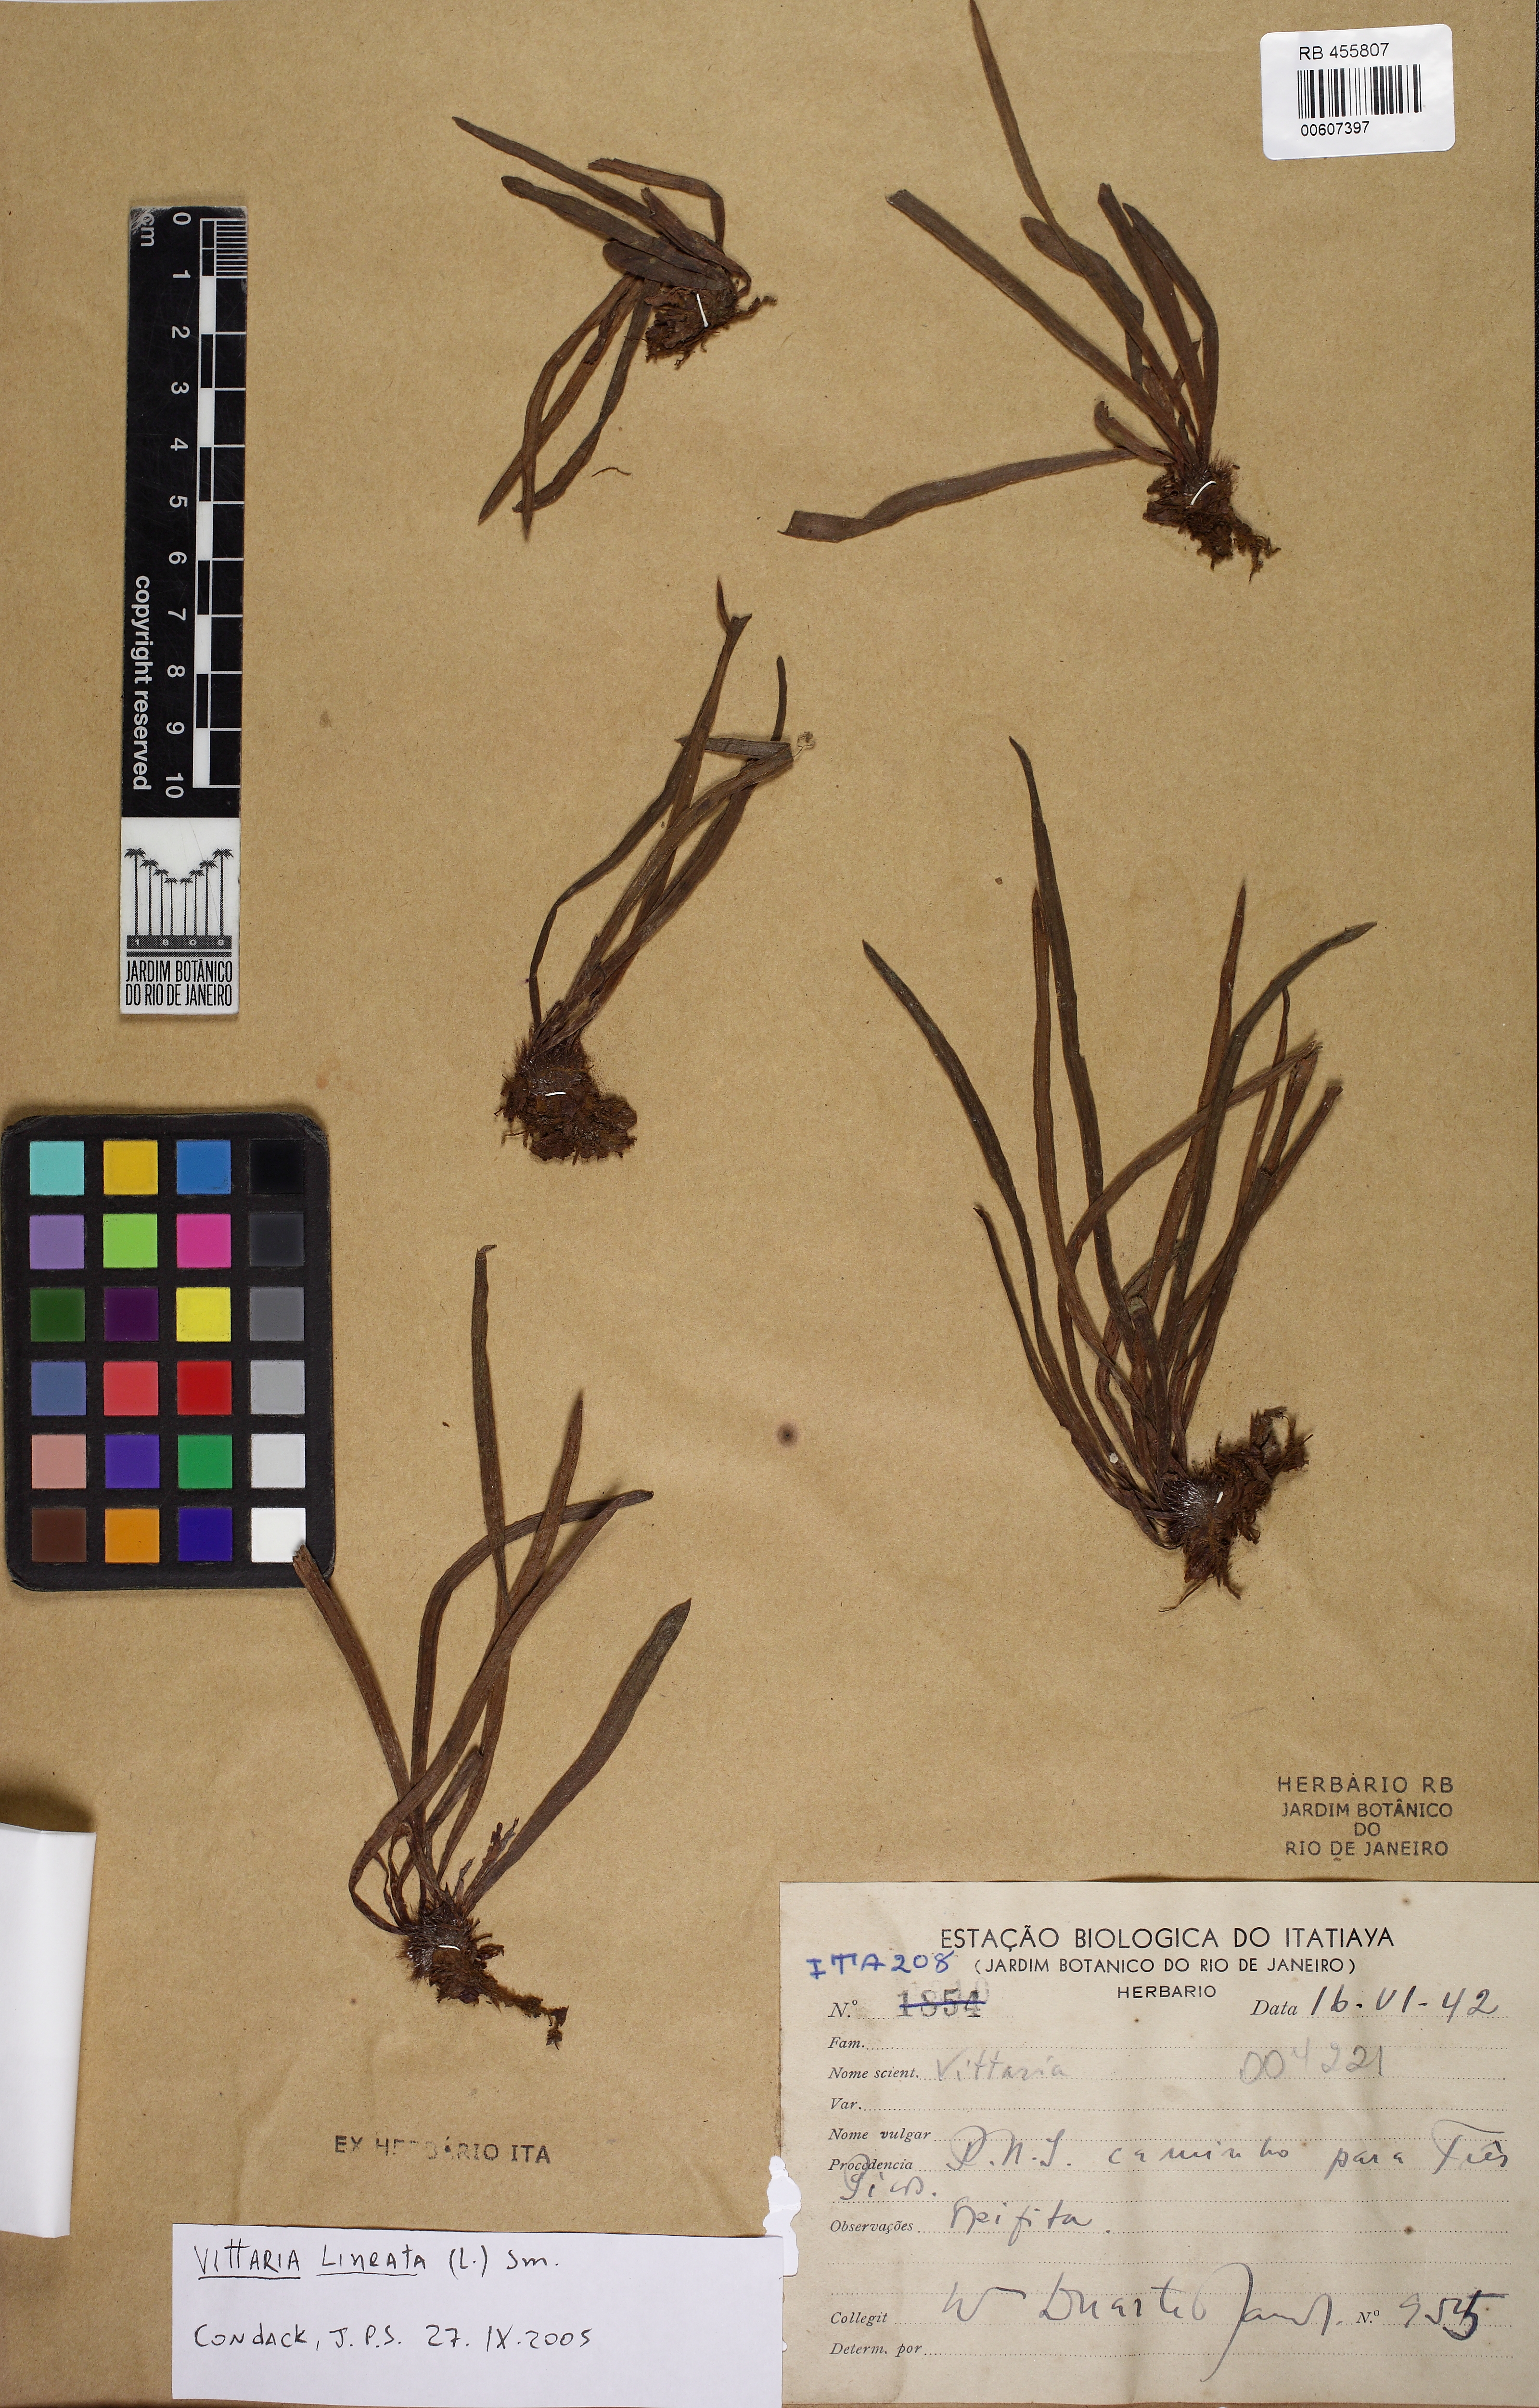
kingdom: Plantae
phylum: Tracheophyta
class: Polypodiopsida
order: Polypodiales
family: Pteridaceae
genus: Vittaria
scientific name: Vittaria lineata
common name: Shoestring fern
